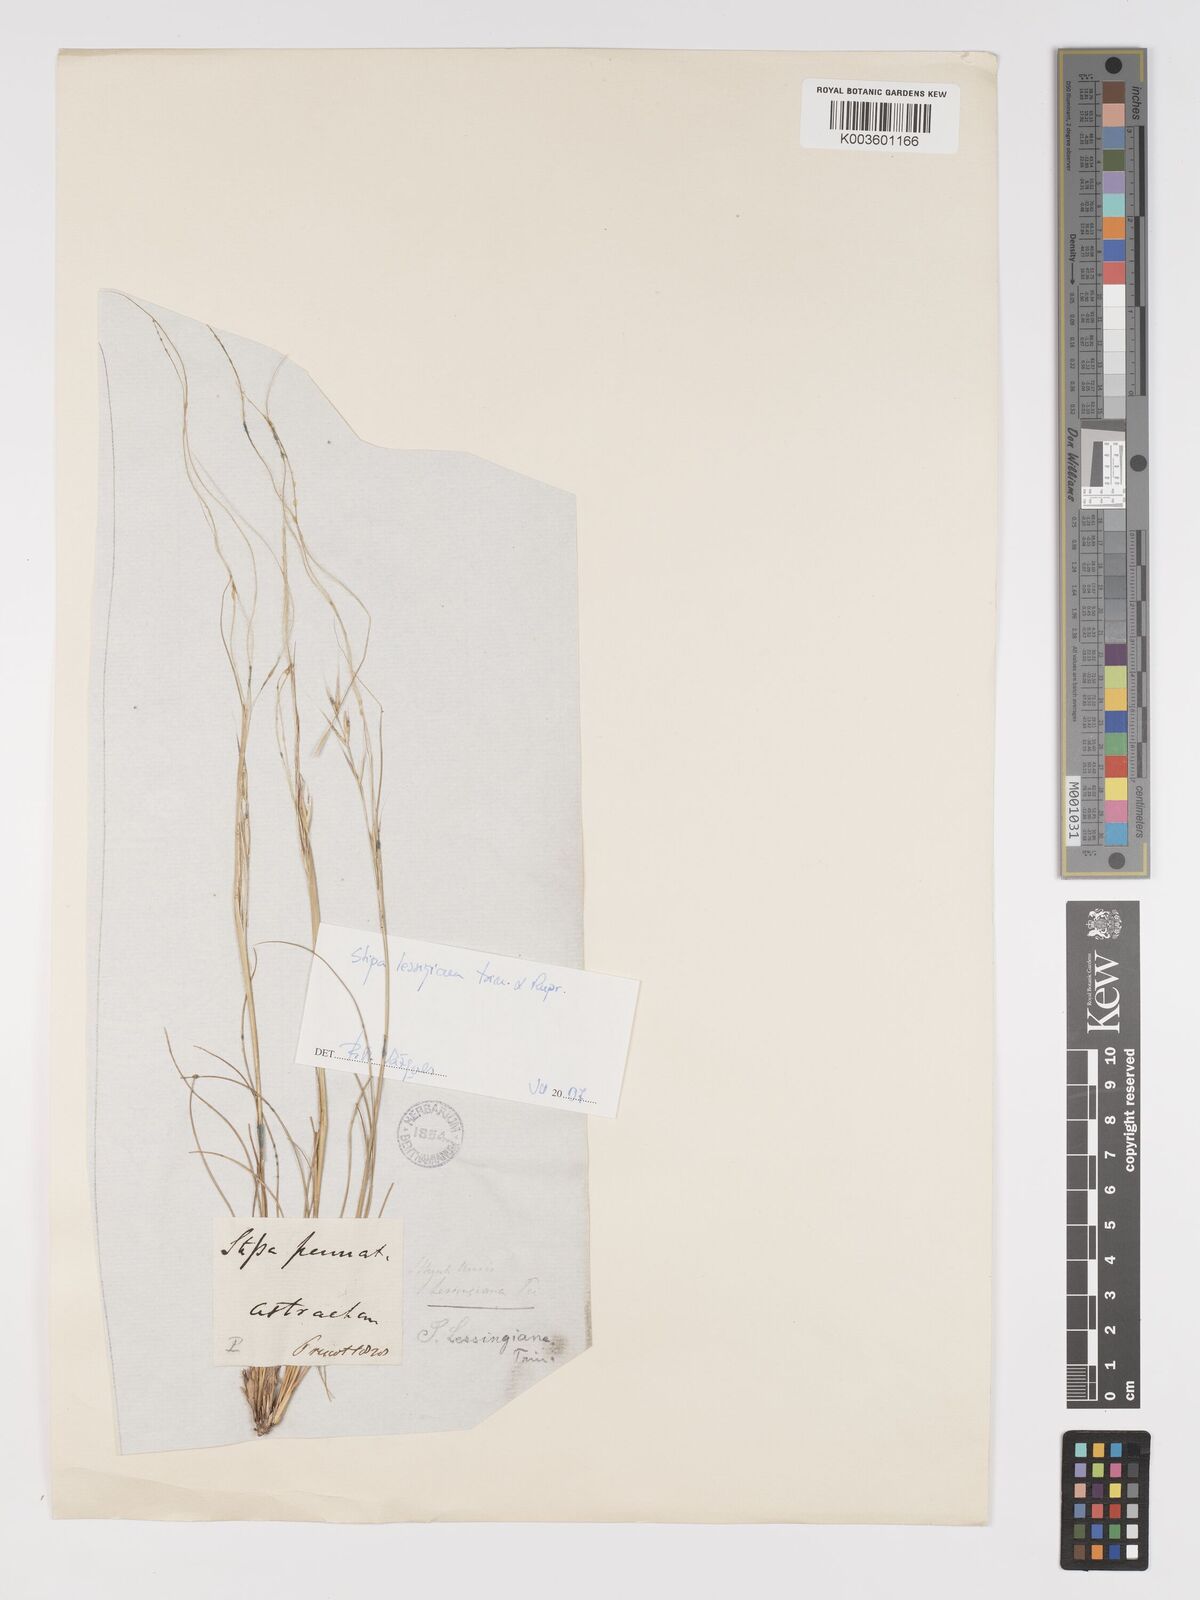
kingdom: Plantae
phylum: Tracheophyta
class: Liliopsida
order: Poales
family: Poaceae
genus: Stipa
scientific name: Stipa lessingiana
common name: Needle grass
